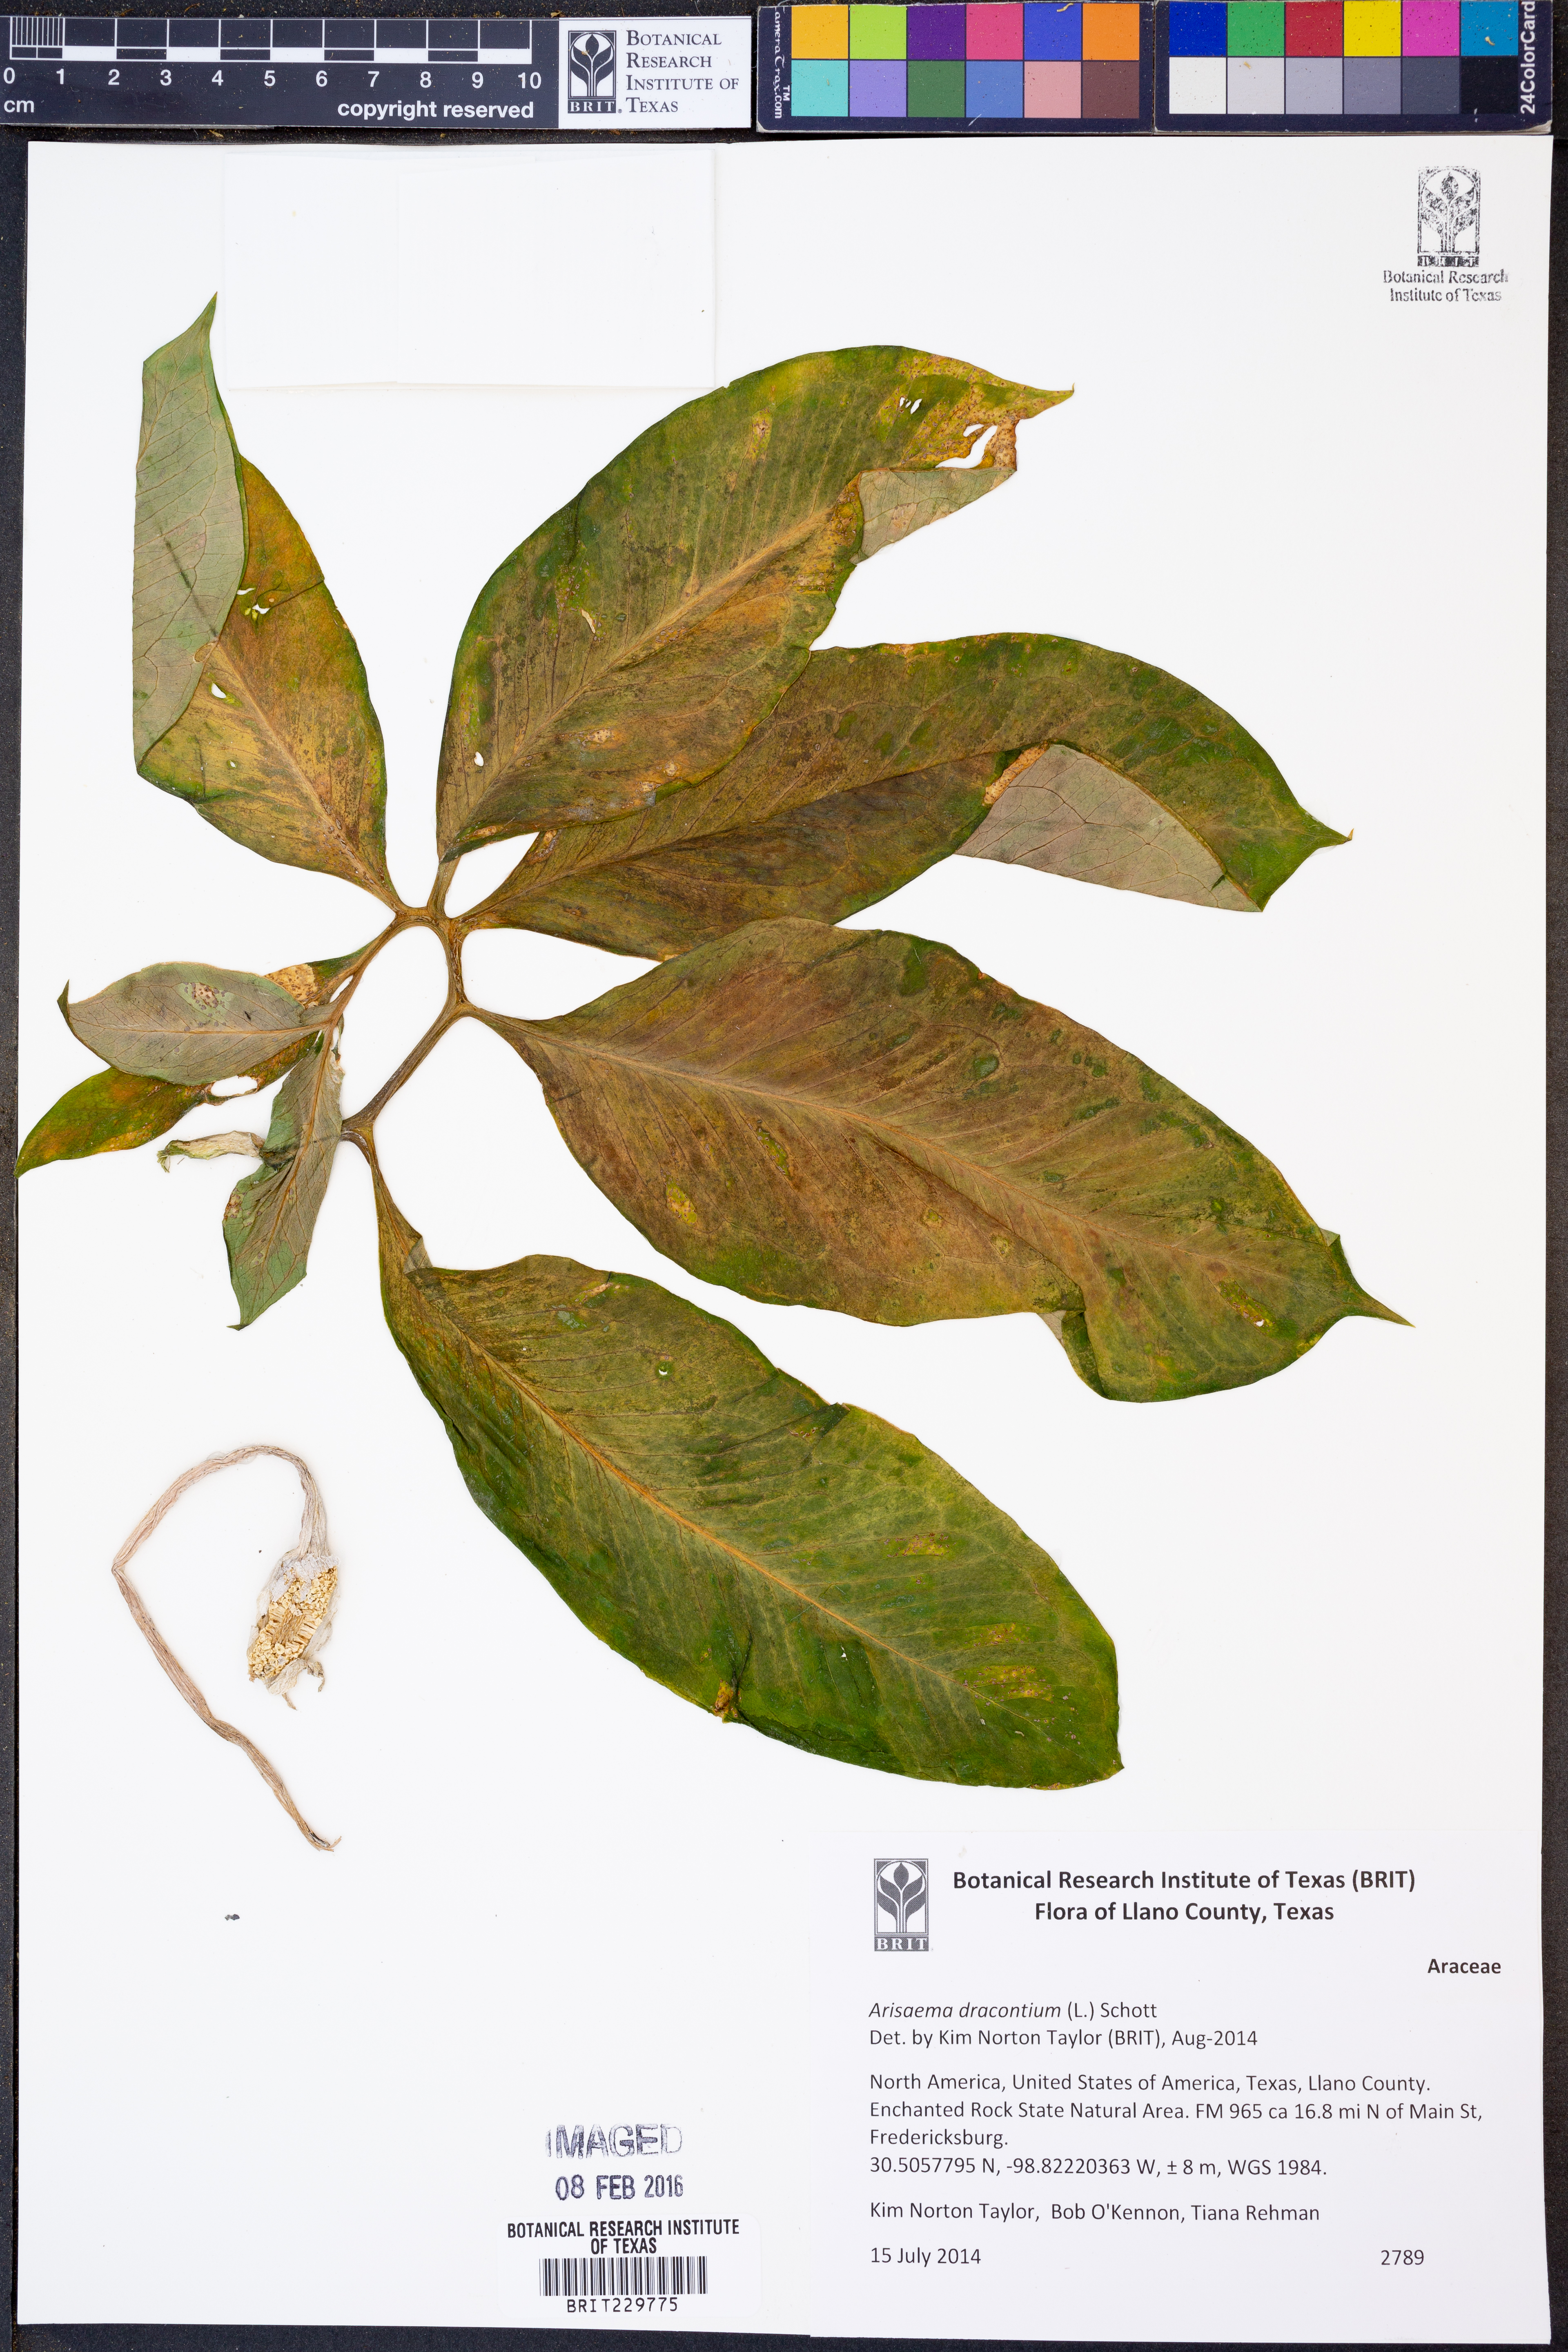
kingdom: Plantae
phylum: Tracheophyta
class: Liliopsida
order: Alismatales
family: Araceae
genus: Arisaema
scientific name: Arisaema dracontium
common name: Dragon-arum
